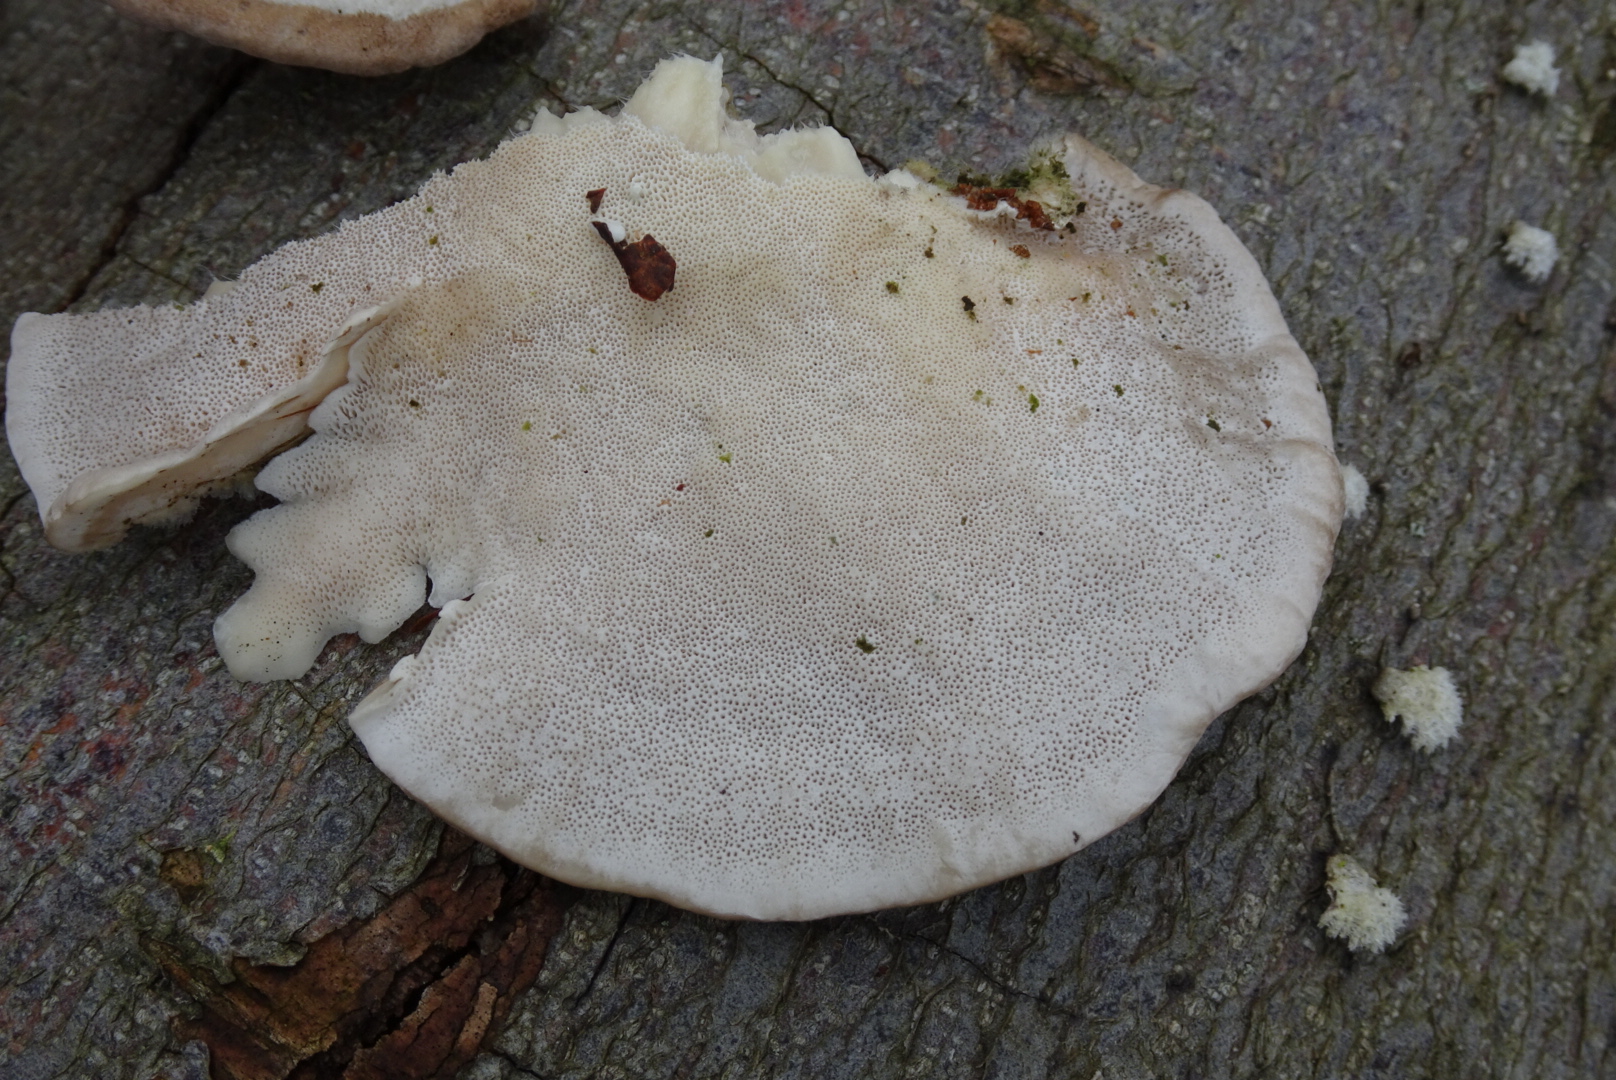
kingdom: Fungi
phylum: Basidiomycota
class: Agaricomycetes
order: Polyporales
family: Polyporaceae
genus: Trametes
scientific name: Trametes hirsuta
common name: håret læderporesvamp
